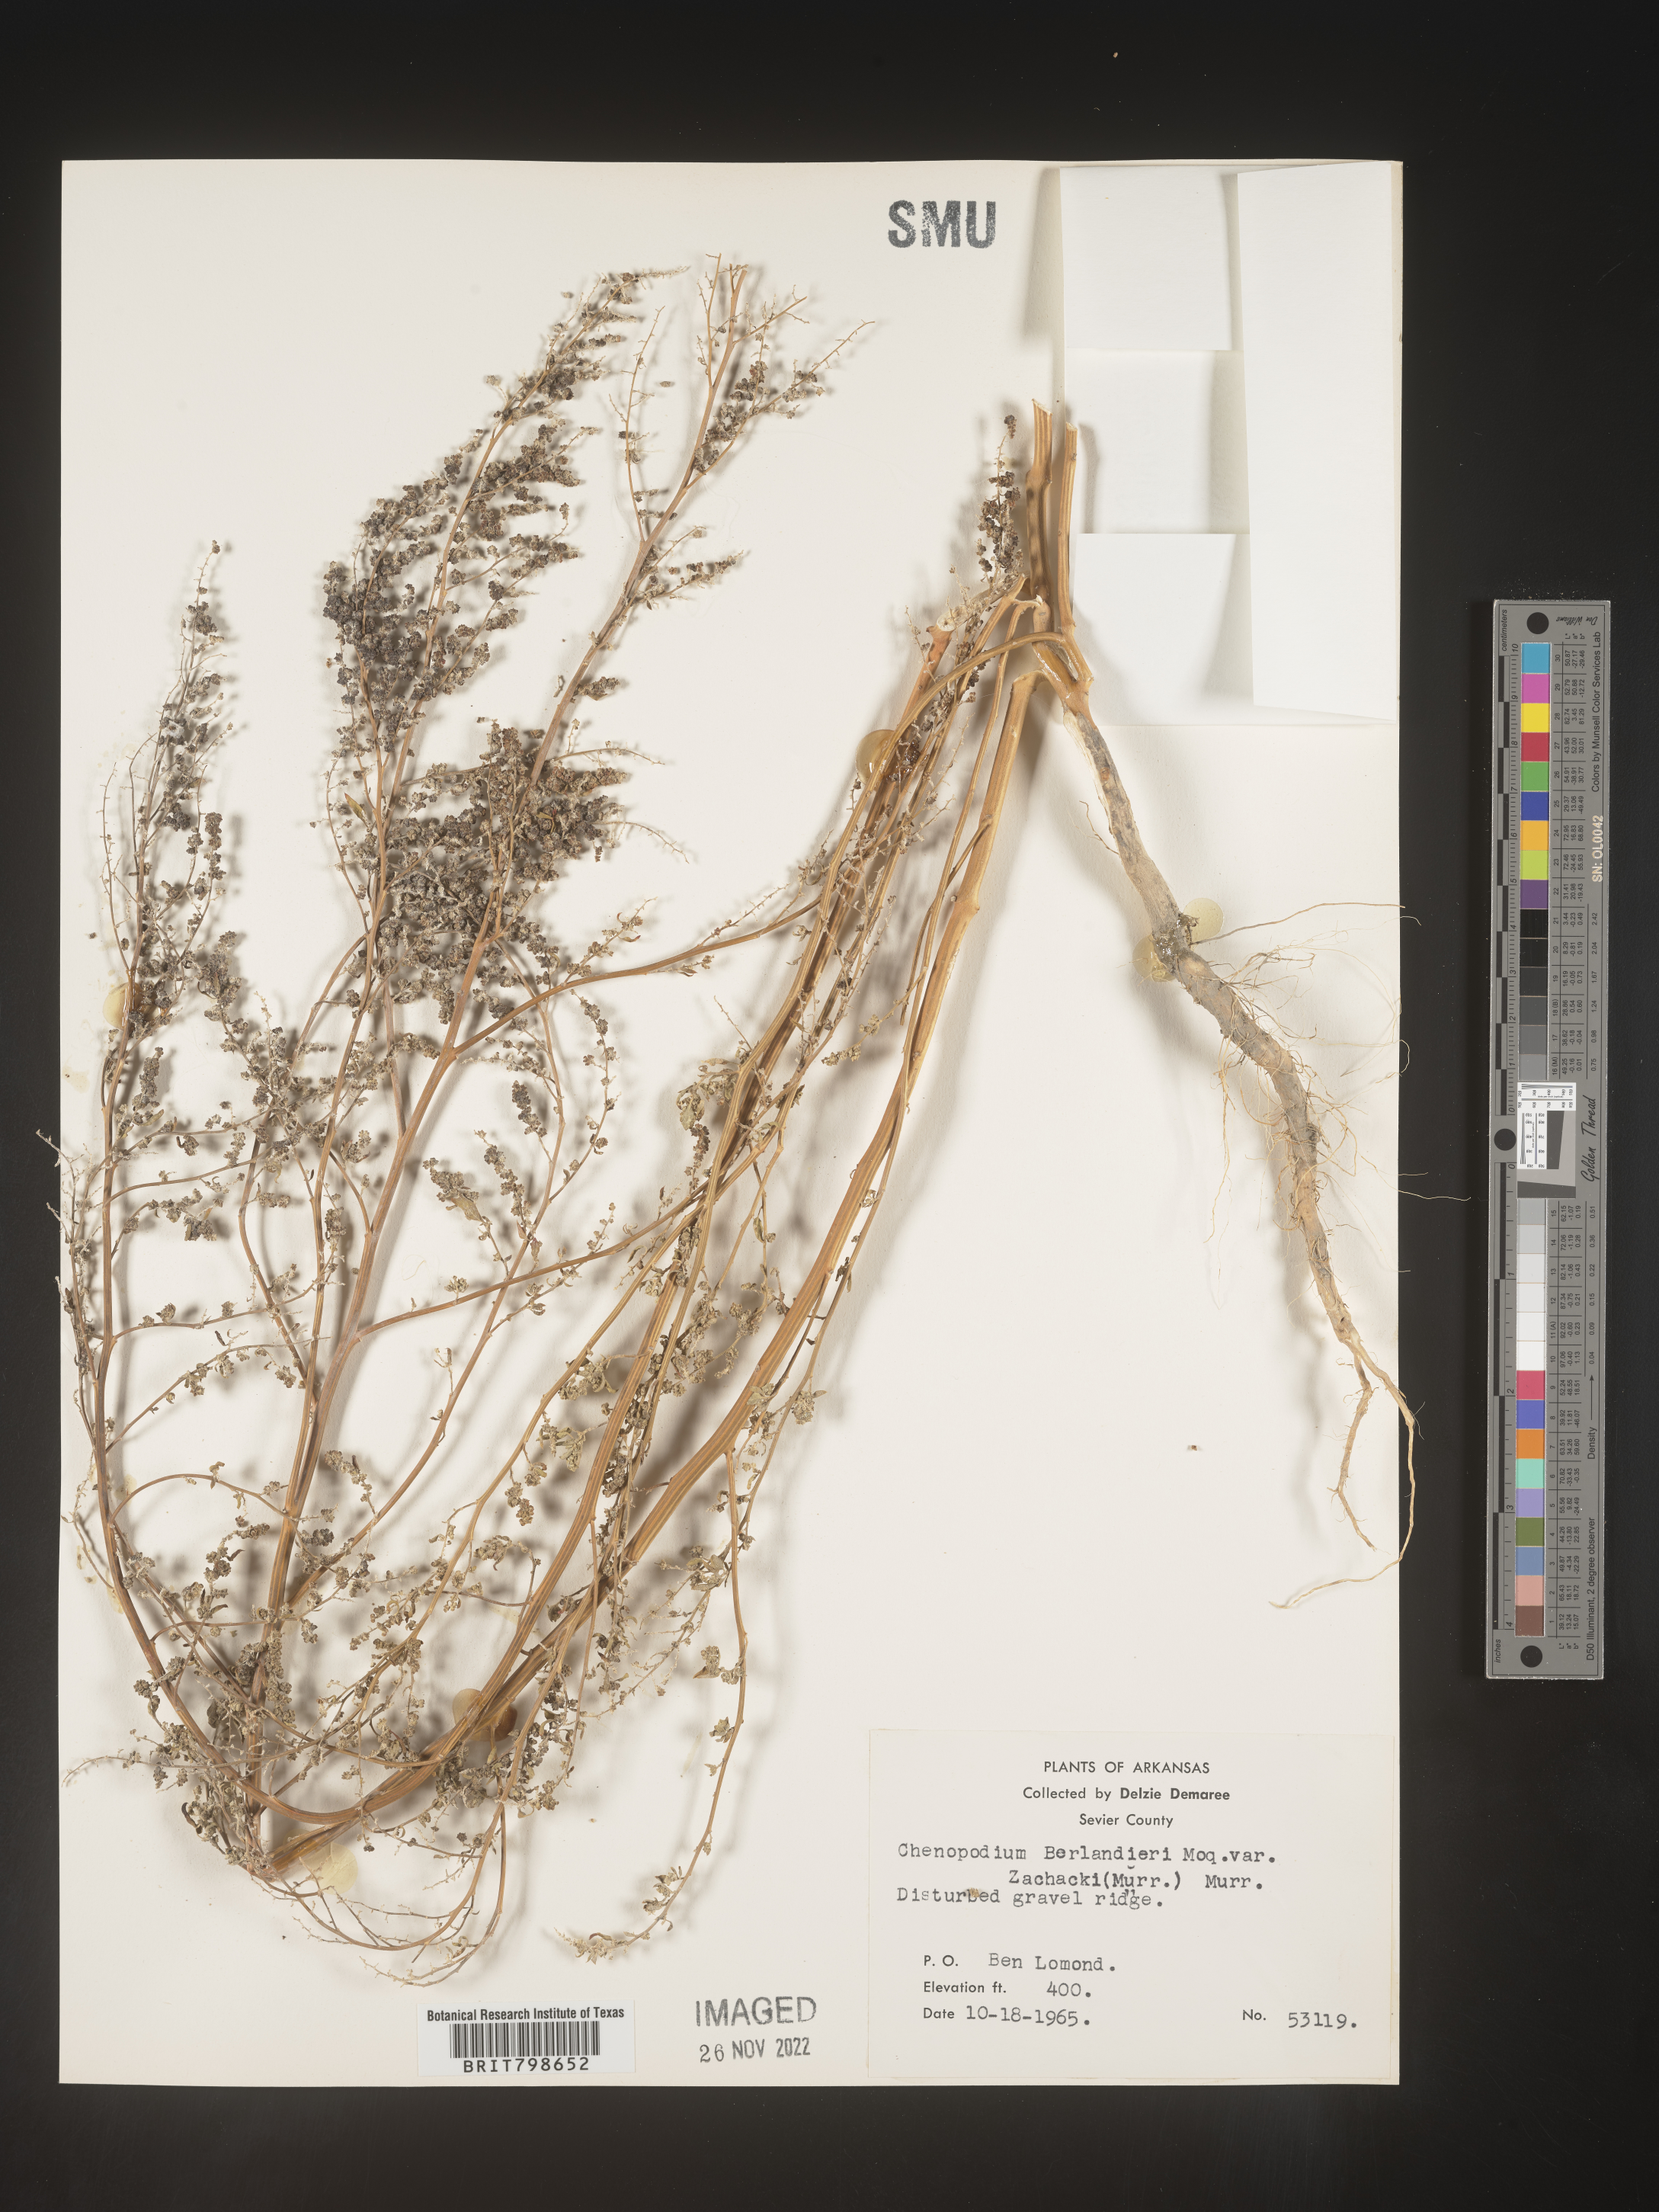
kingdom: Plantae
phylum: Tracheophyta
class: Magnoliopsida
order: Caryophyllales
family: Amaranthaceae
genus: Chenopodium
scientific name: Chenopodium berlandieri
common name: Pit-seed goosefoot
